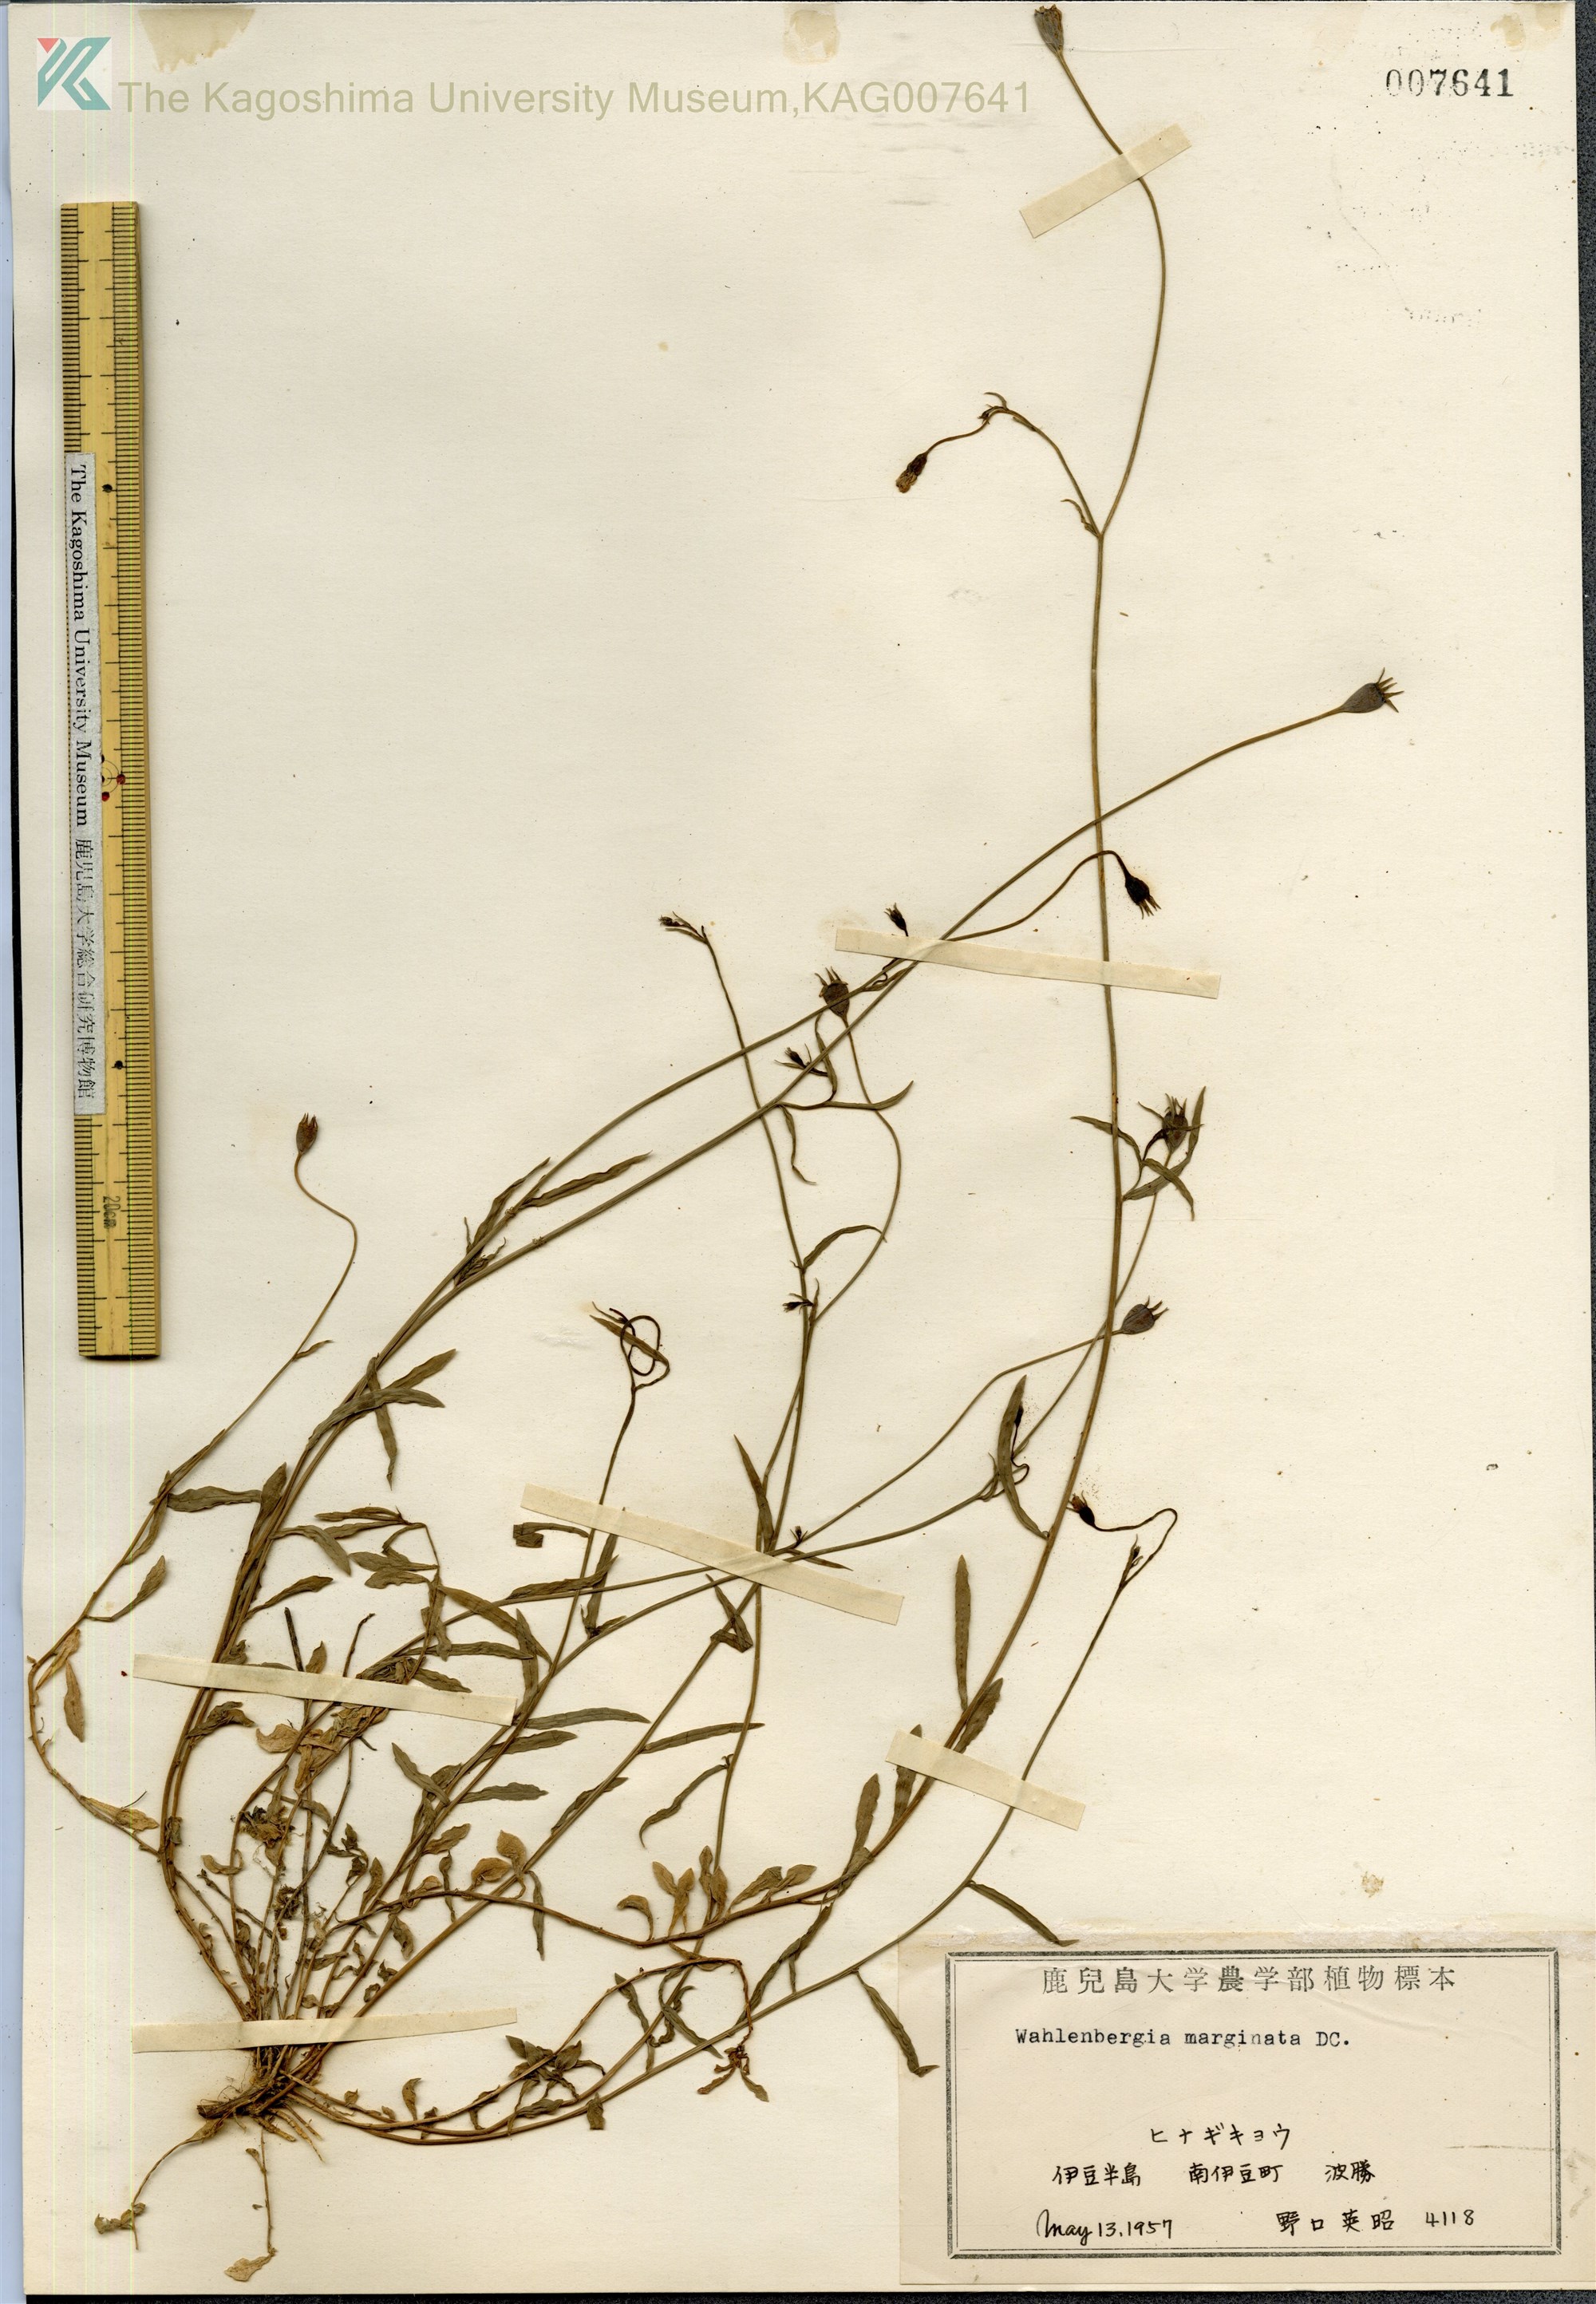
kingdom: Plantae
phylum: Tracheophyta
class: Magnoliopsida
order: Asterales
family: Campanulaceae
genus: Wahlenbergia
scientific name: Wahlenbergia marginata
